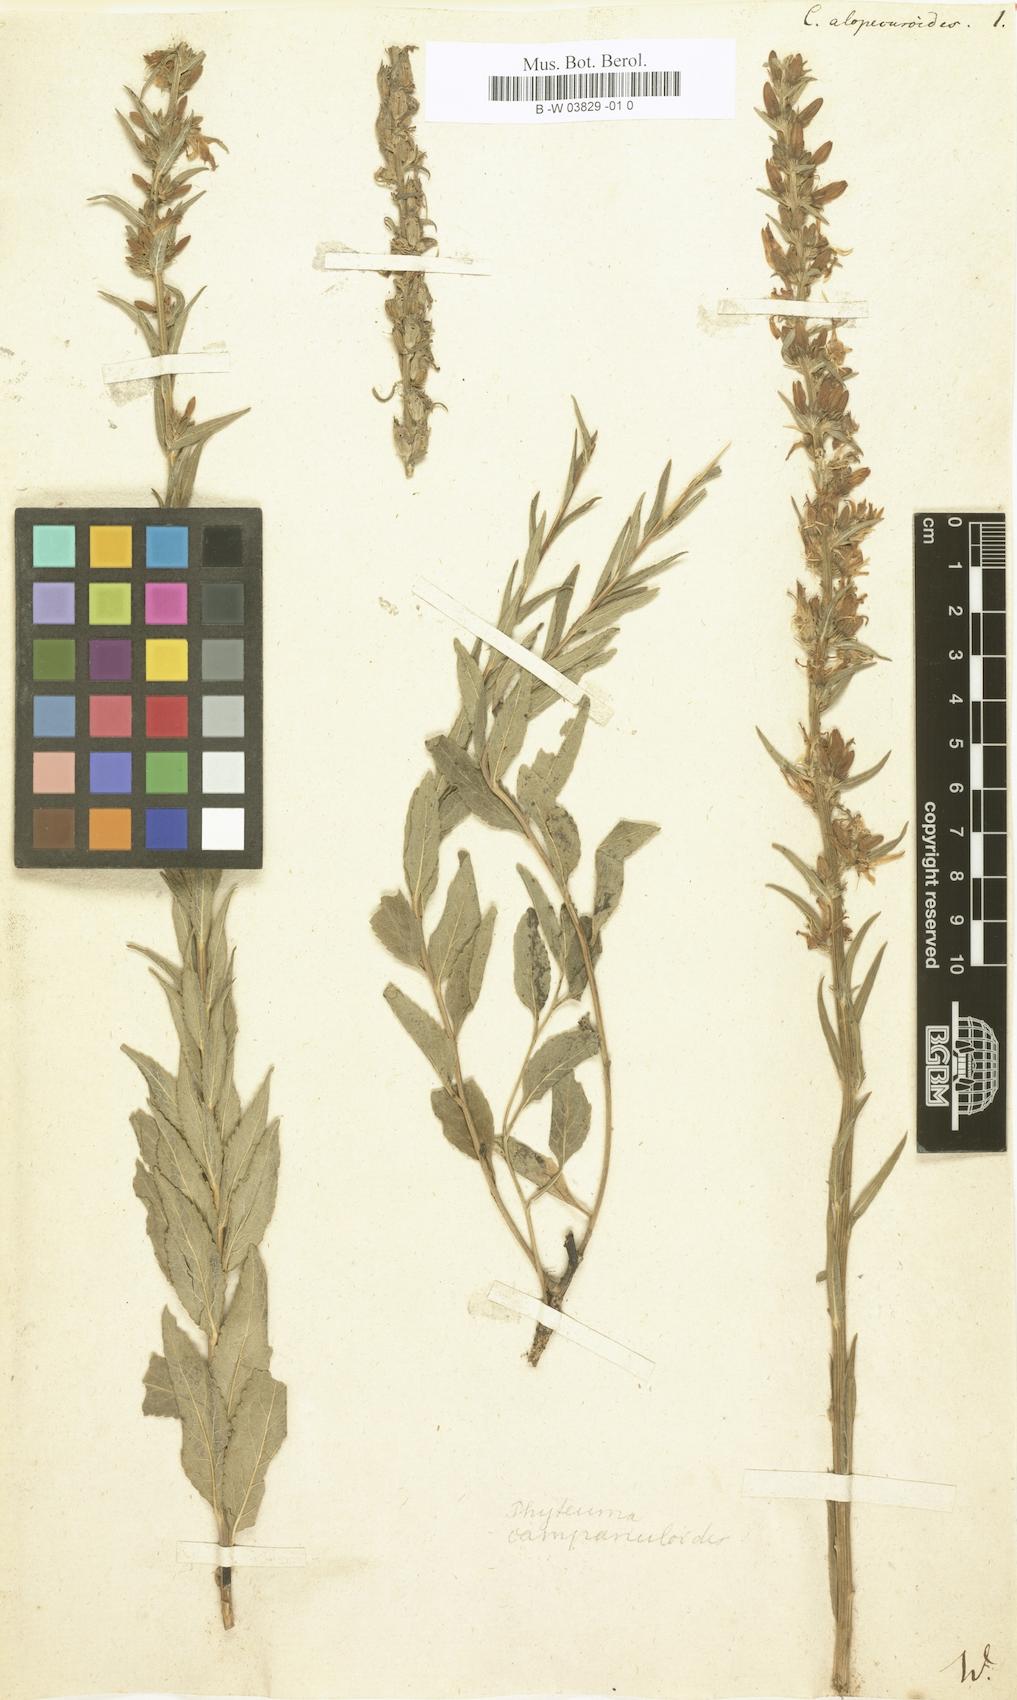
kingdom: Plantae
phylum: Tracheophyta
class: Magnoliopsida
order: Asterales
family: Campanulaceae
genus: Asyneuma
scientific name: Asyneuma rigidum
